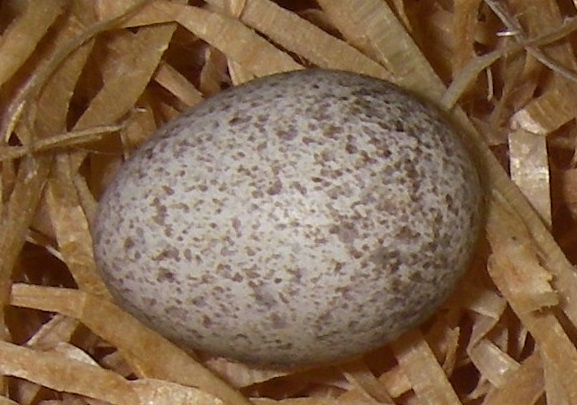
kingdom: Animalia
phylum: Chordata
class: Aves
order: Cuculiformes
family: Cuculidae
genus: Cuculus
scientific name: Cuculus canorus
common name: Common cuckoo
